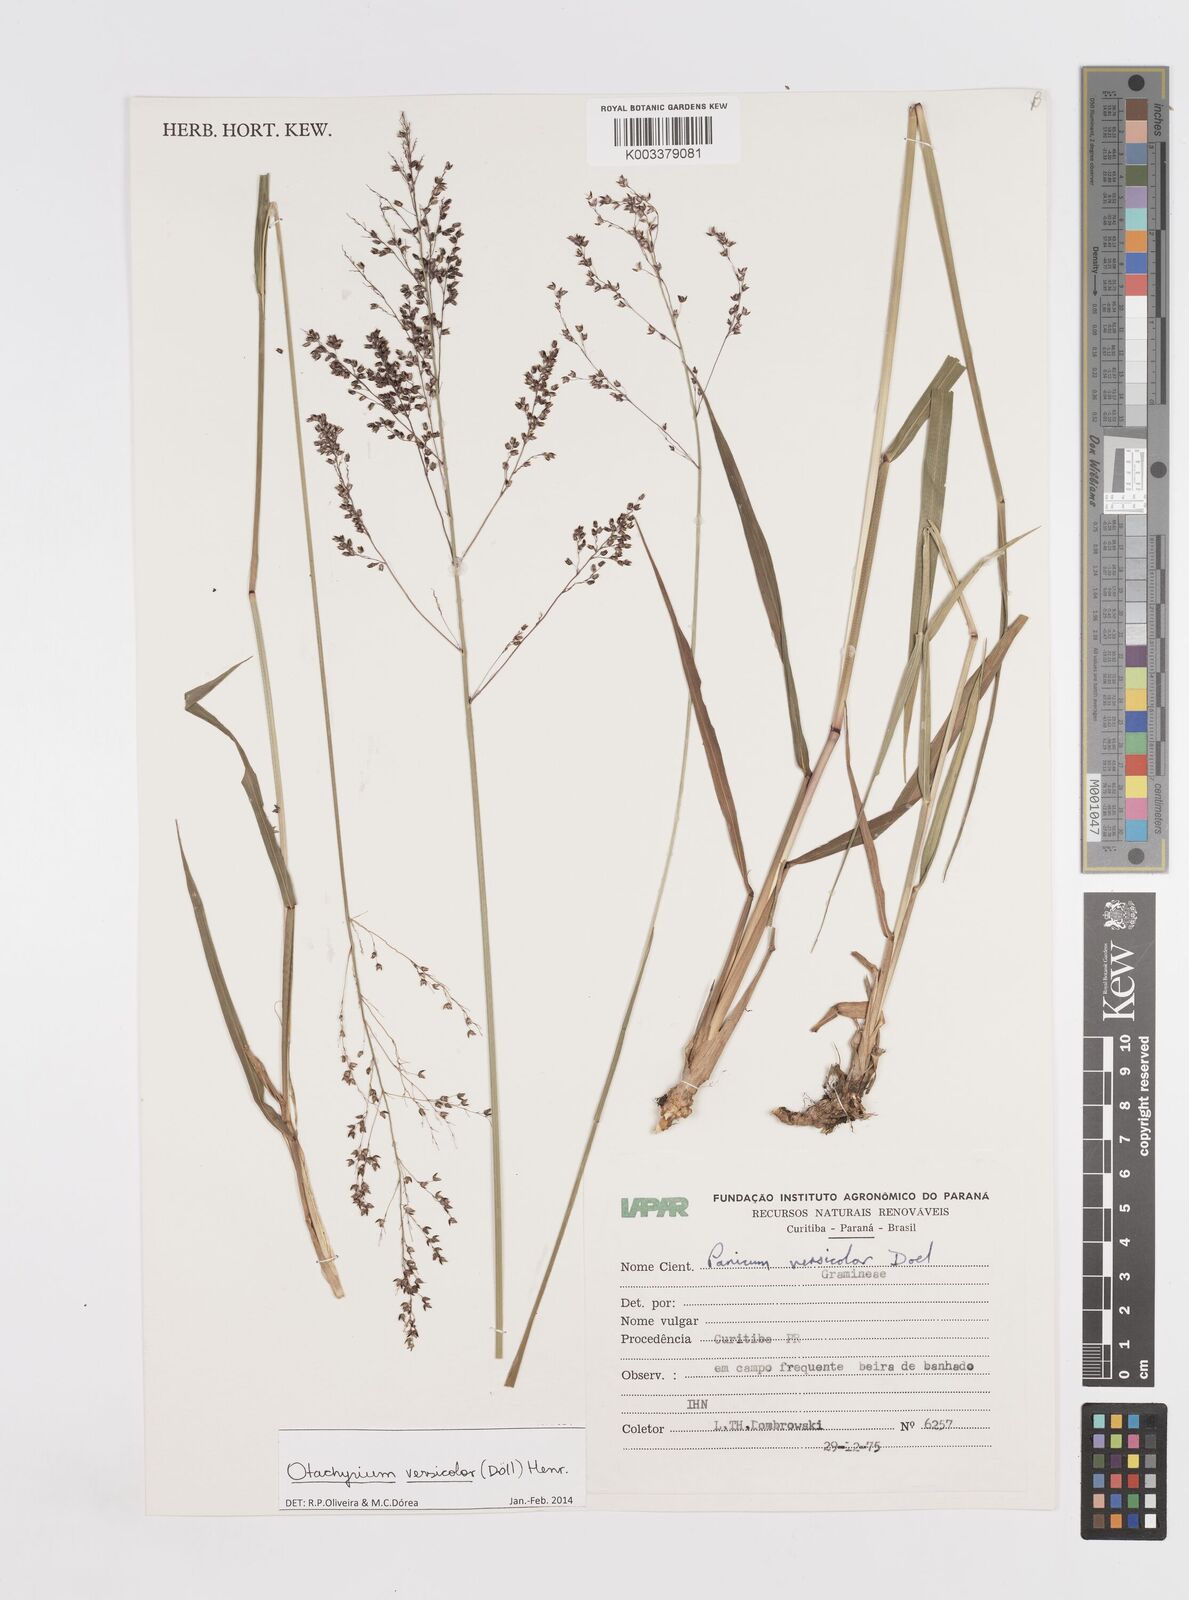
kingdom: Plantae
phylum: Tracheophyta
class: Liliopsida
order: Poales
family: Poaceae
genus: Otachyrium
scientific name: Otachyrium versicolor
